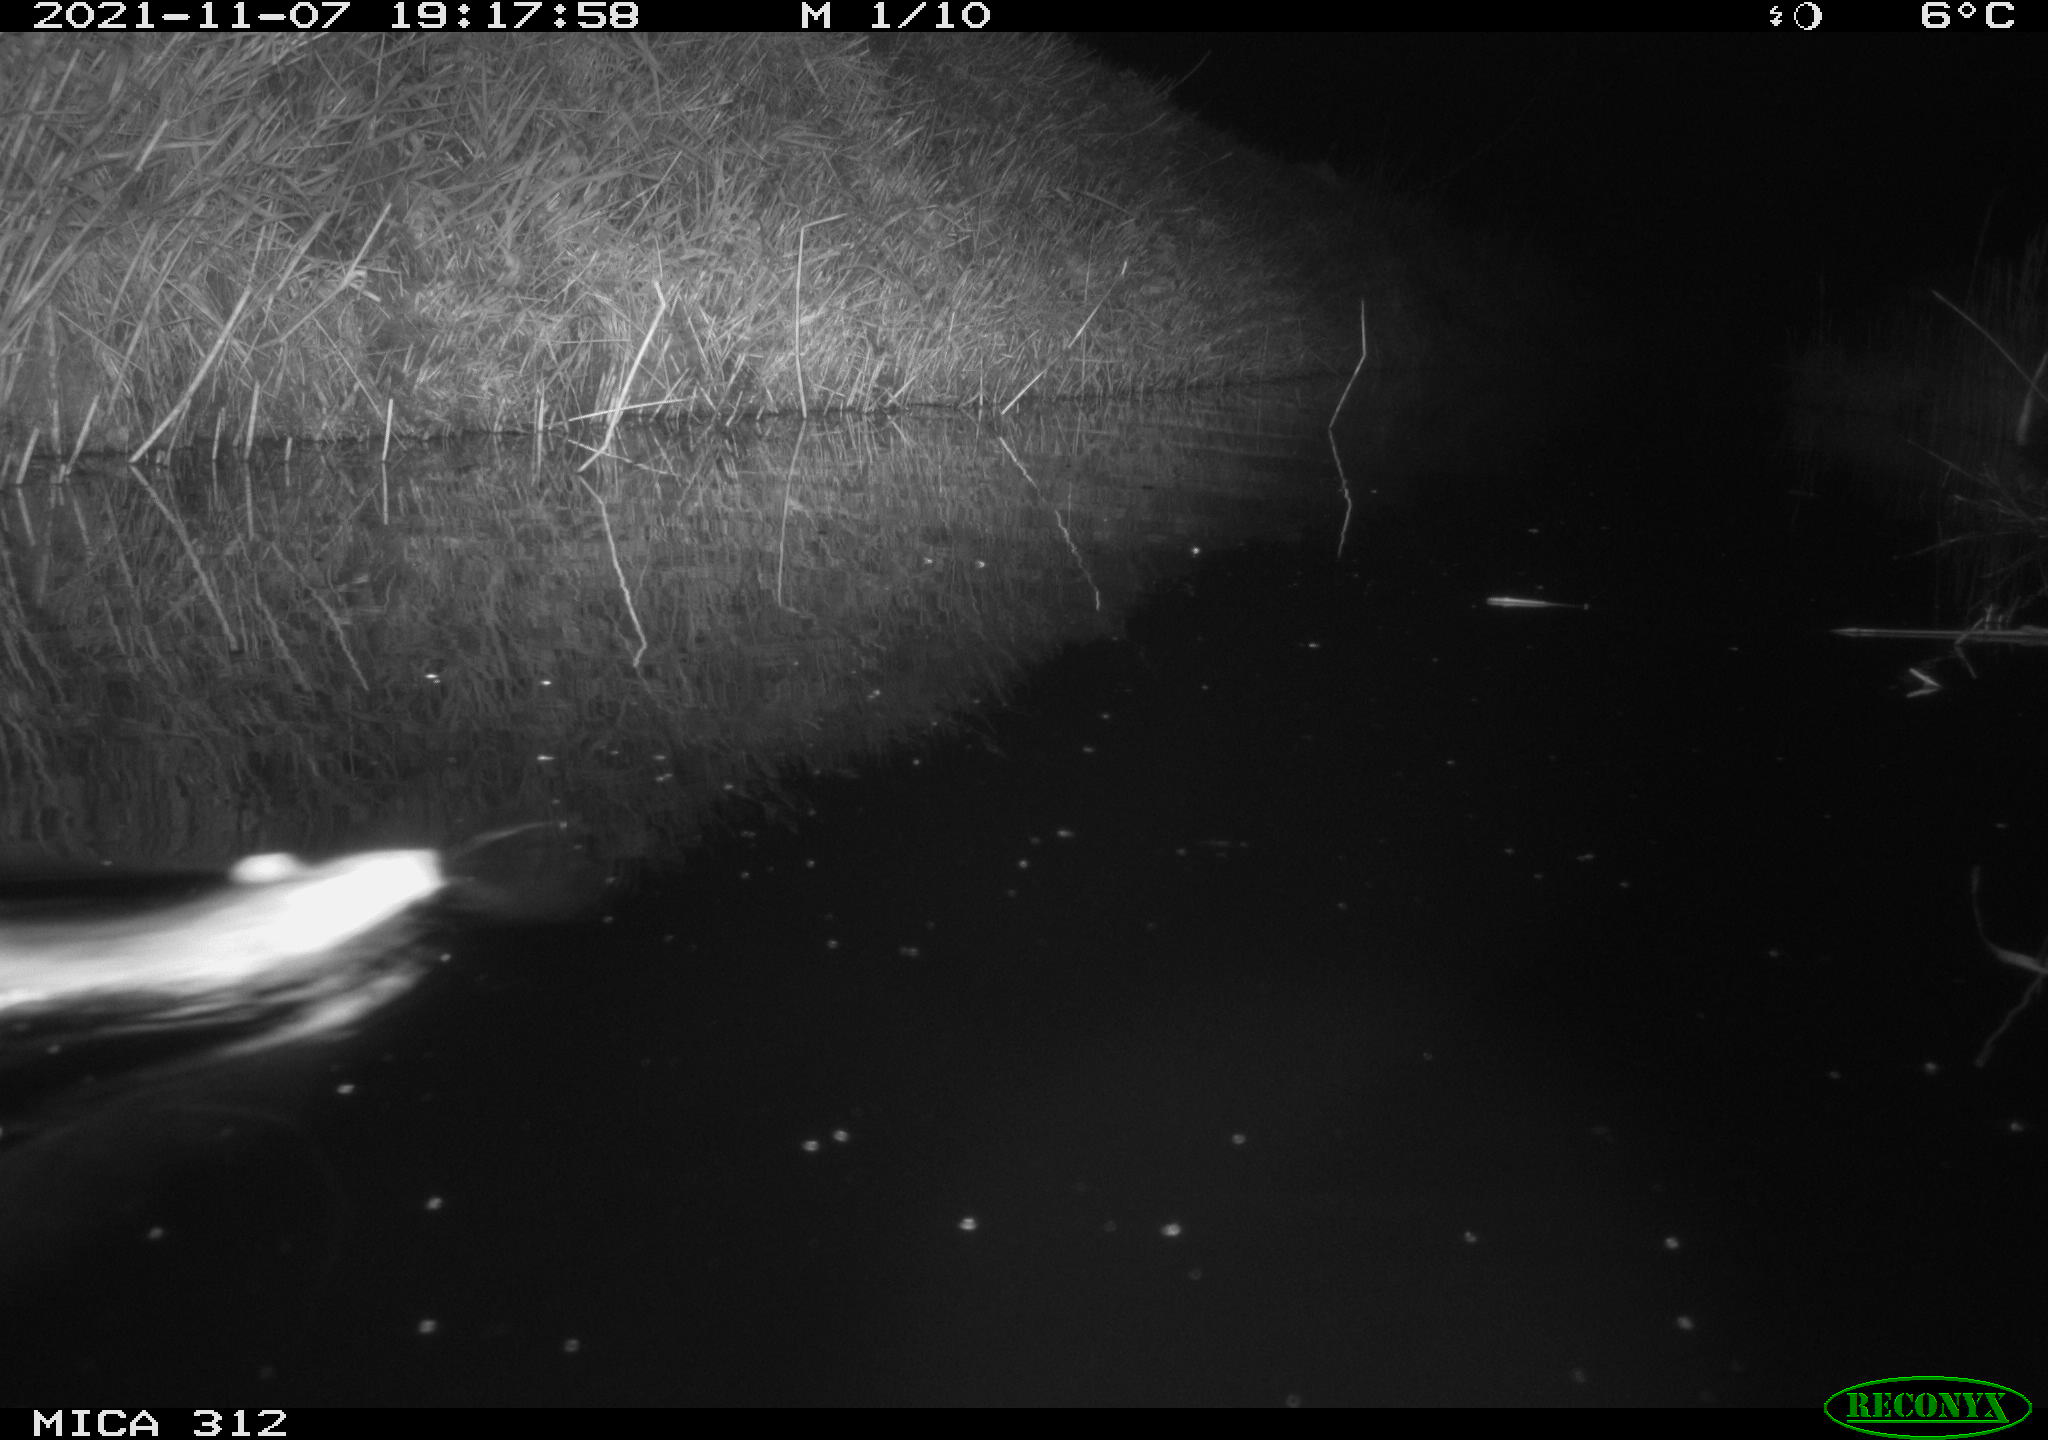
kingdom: Animalia
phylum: Chordata
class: Mammalia
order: Rodentia
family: Muridae
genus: Rattus
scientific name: Rattus norvegicus
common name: Brown rat
